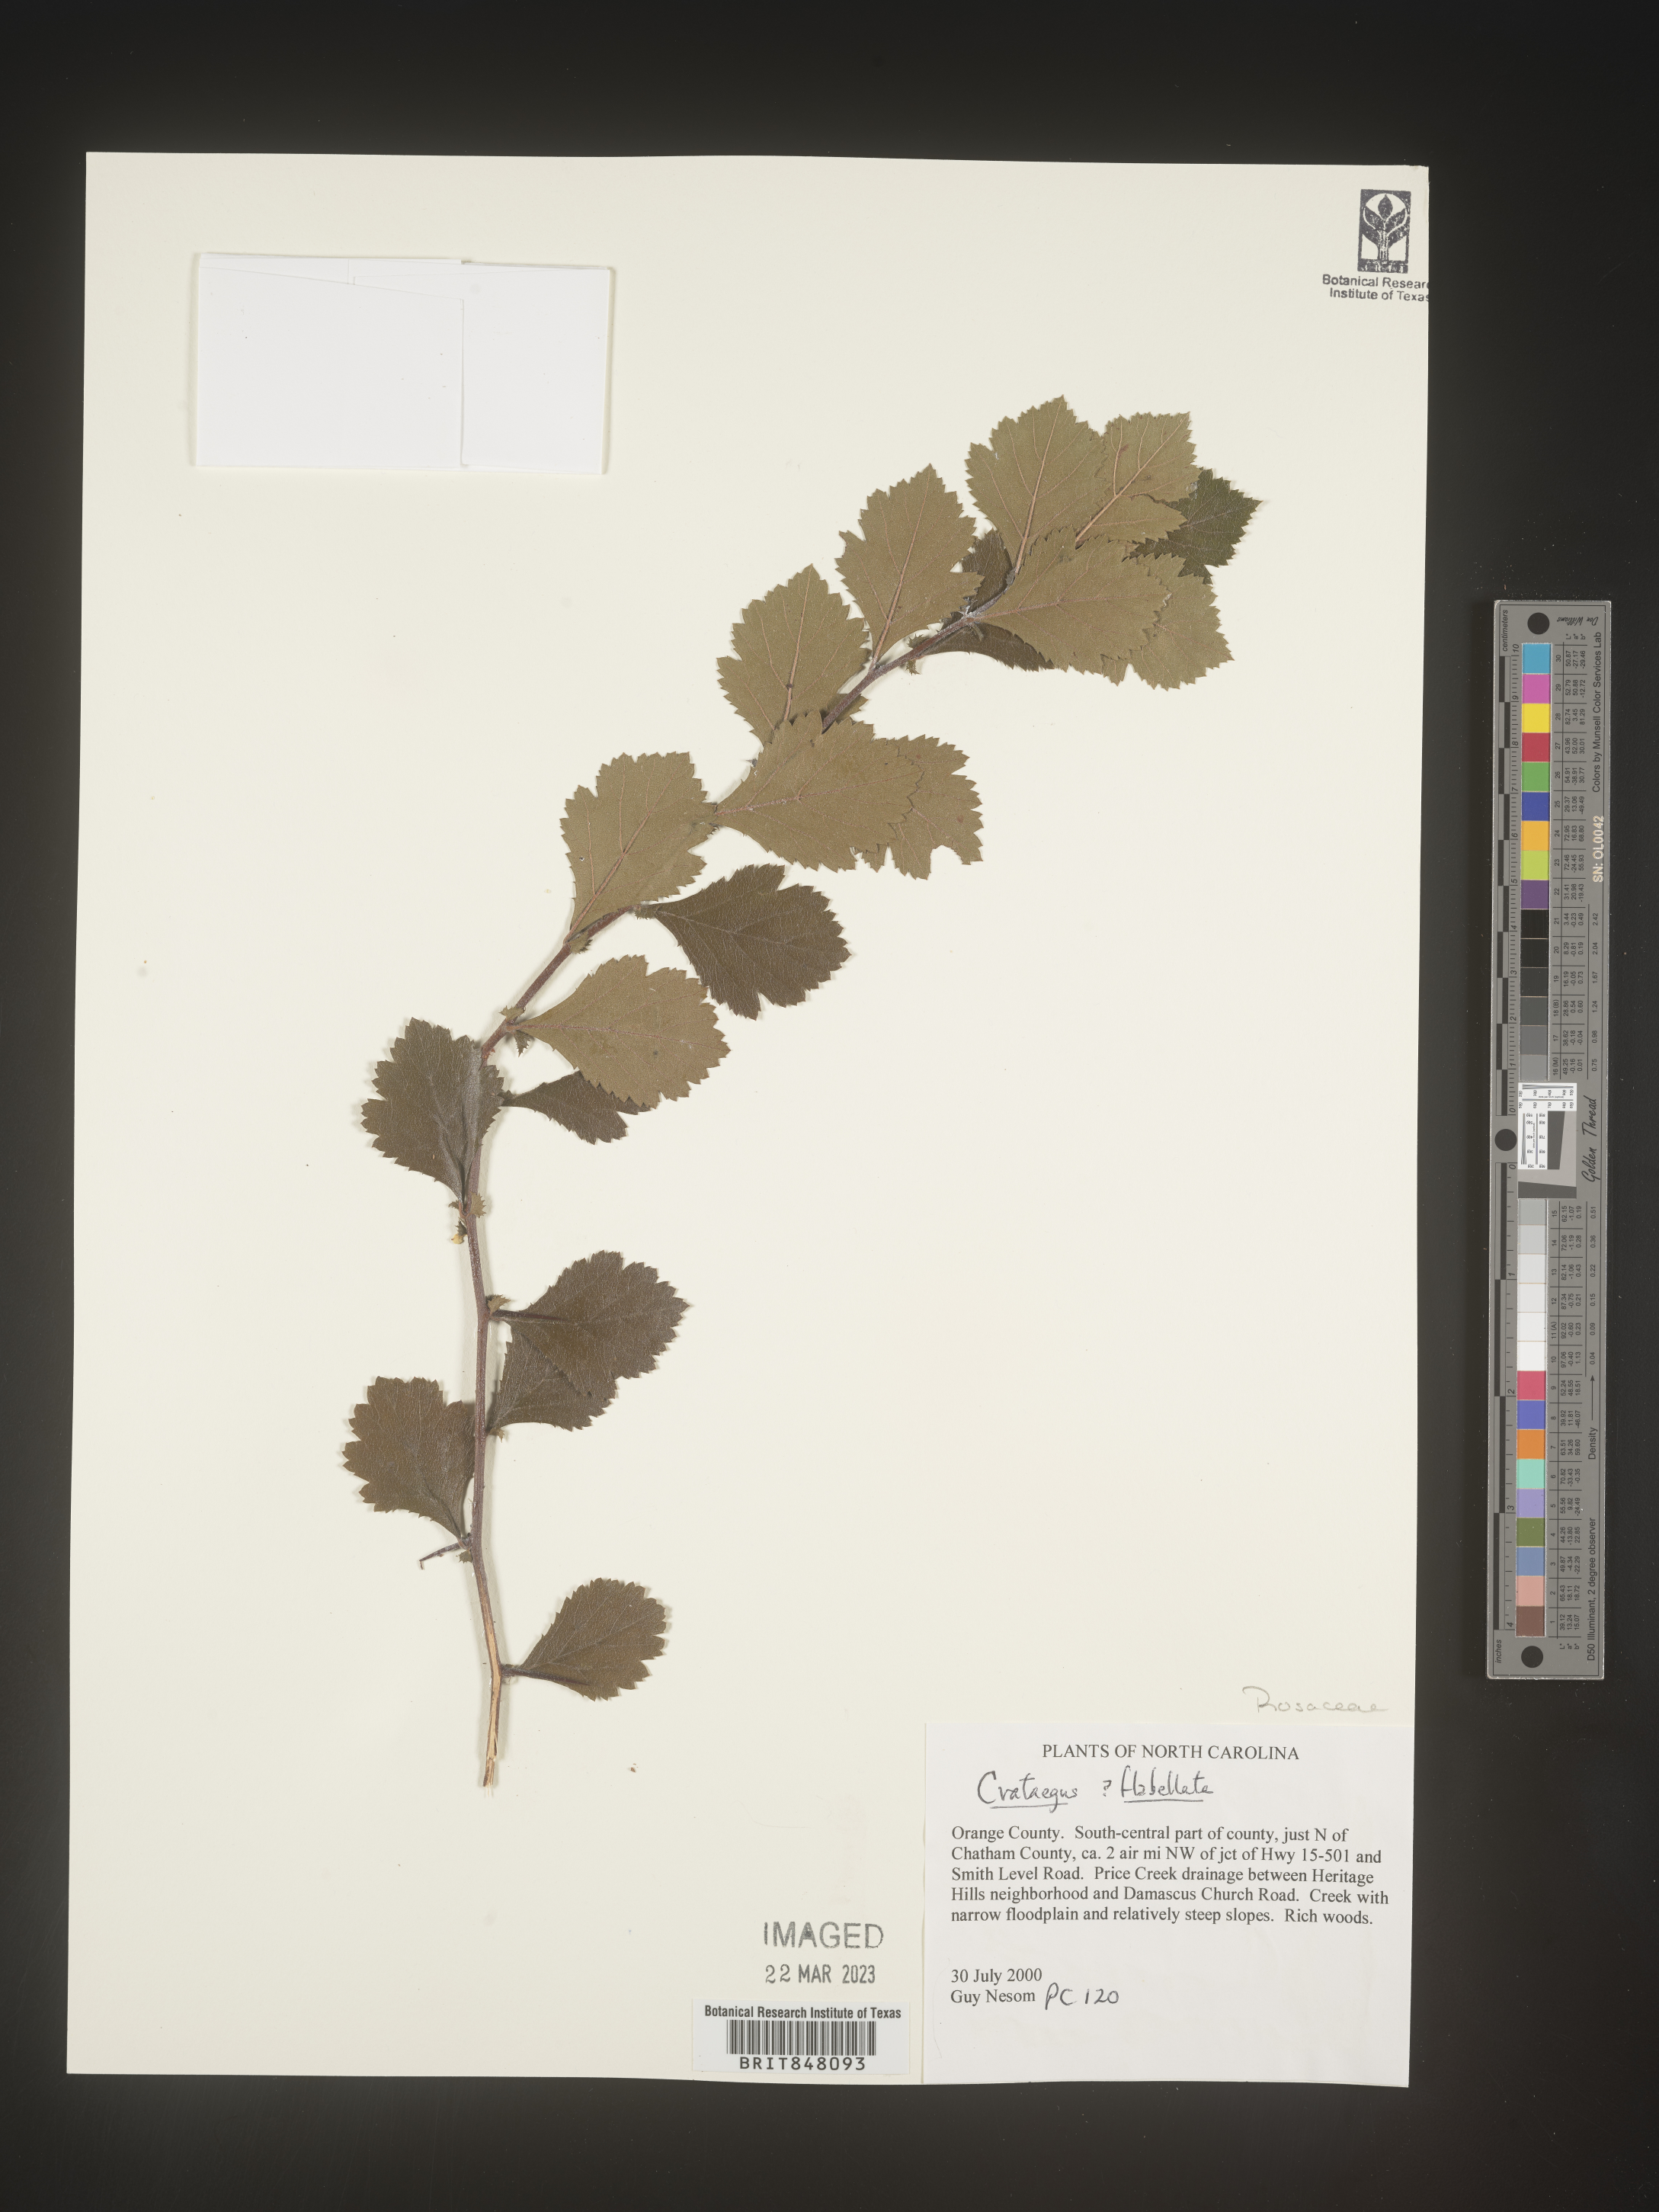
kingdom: Plantae
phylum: Tracheophyta
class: Magnoliopsida
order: Rosales
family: Rosaceae
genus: Crataegus
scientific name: Crataegus
